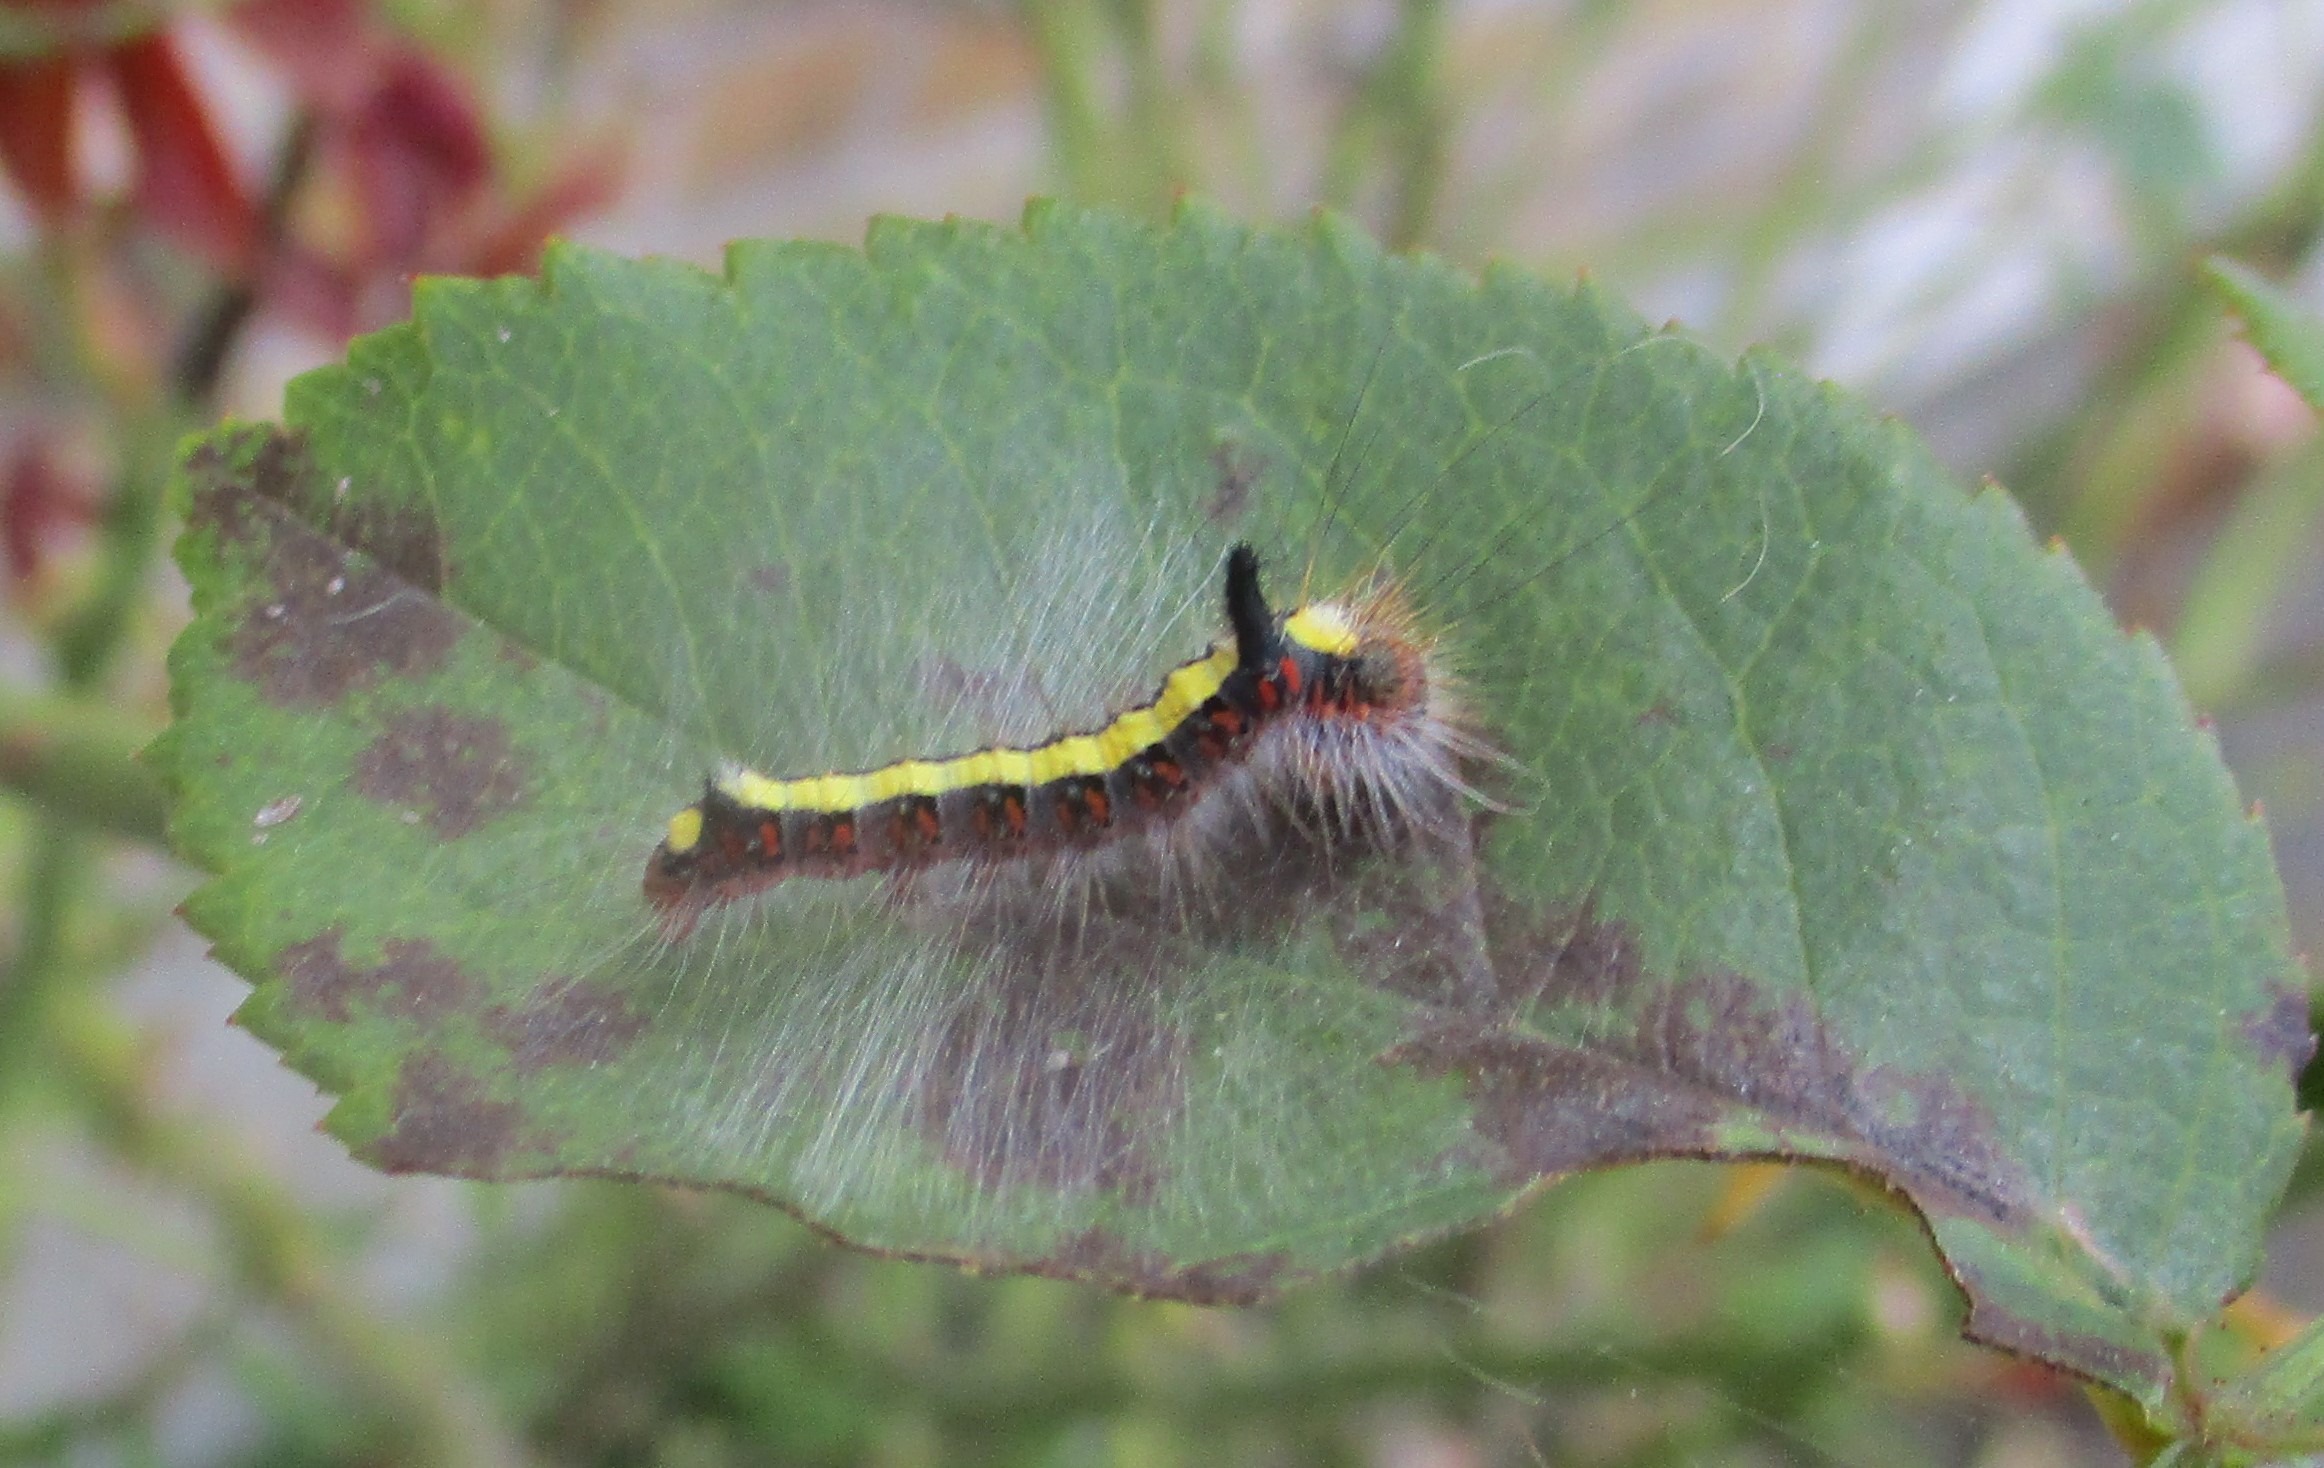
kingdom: Animalia
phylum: Arthropoda
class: Insecta
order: Lepidoptera
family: Noctuidae
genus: Acronicta
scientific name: Acronicta psi
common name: Psi-ugle
